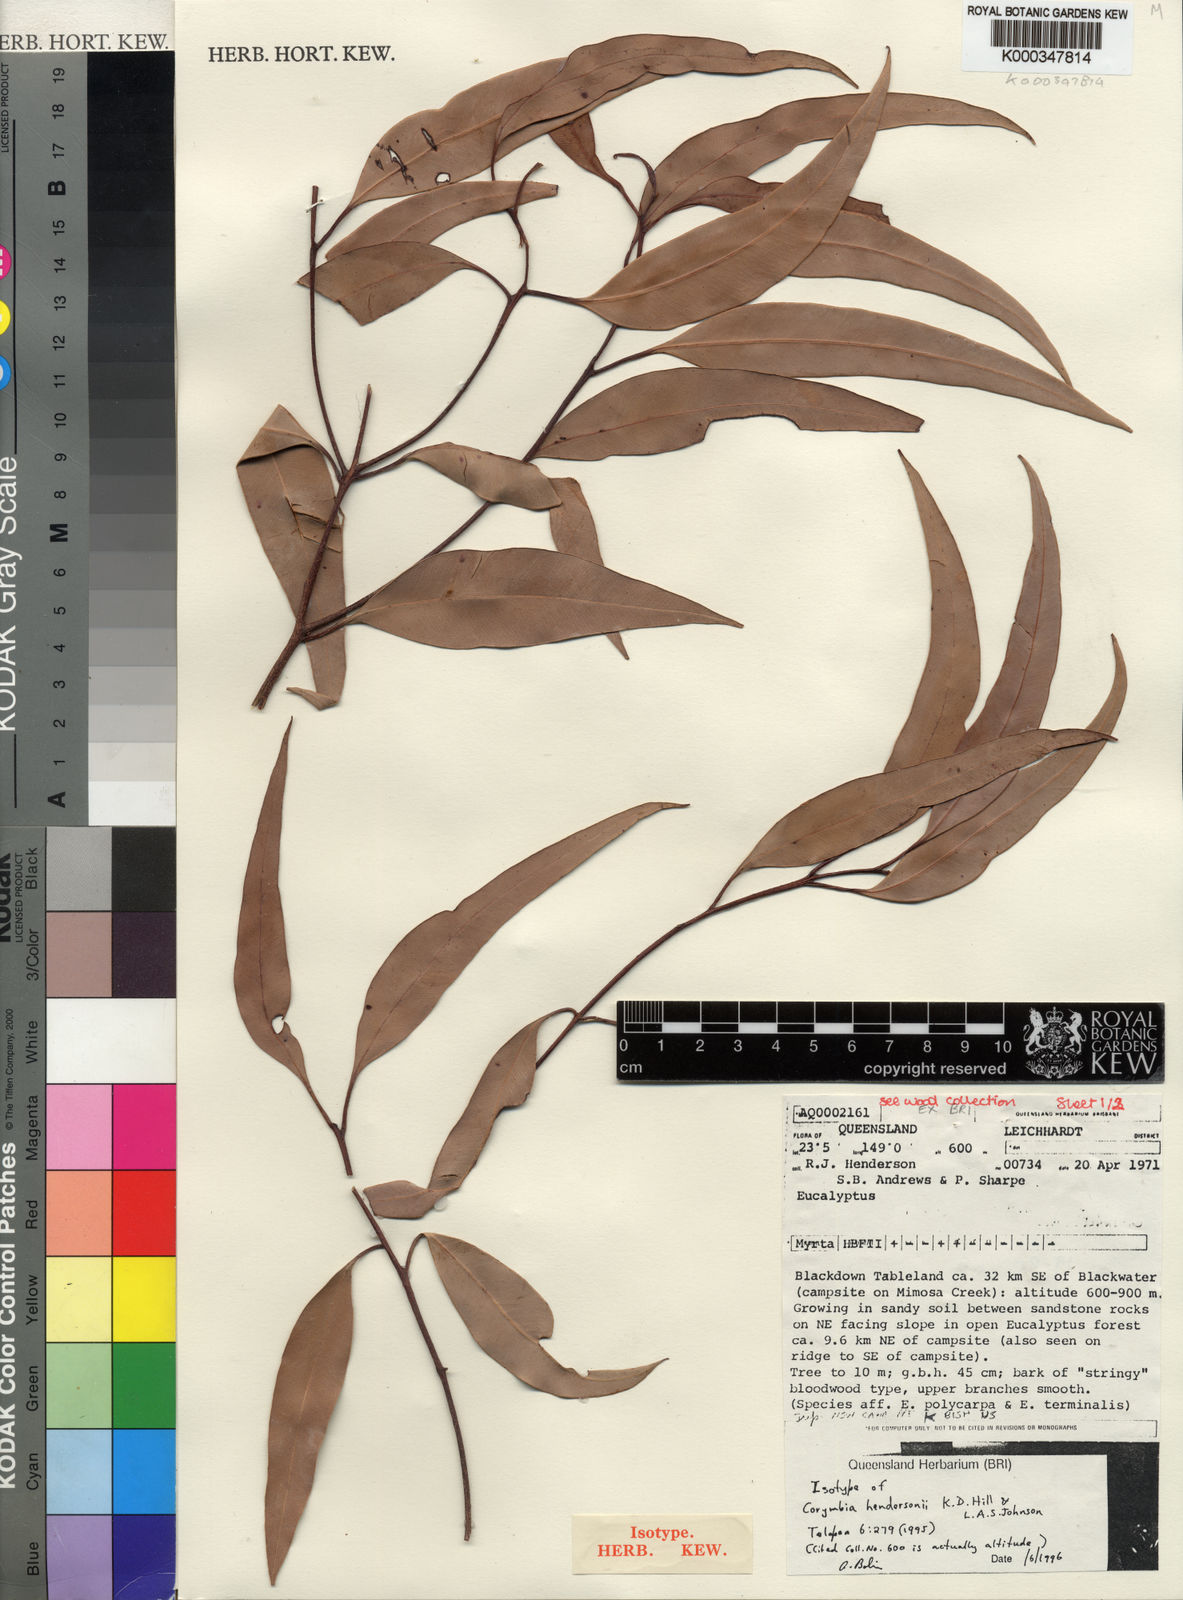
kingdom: Plantae
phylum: Tracheophyta
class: Magnoliopsida
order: Myrtales
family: Myrtaceae
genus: Corymbia
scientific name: Corymbia hendersonii
